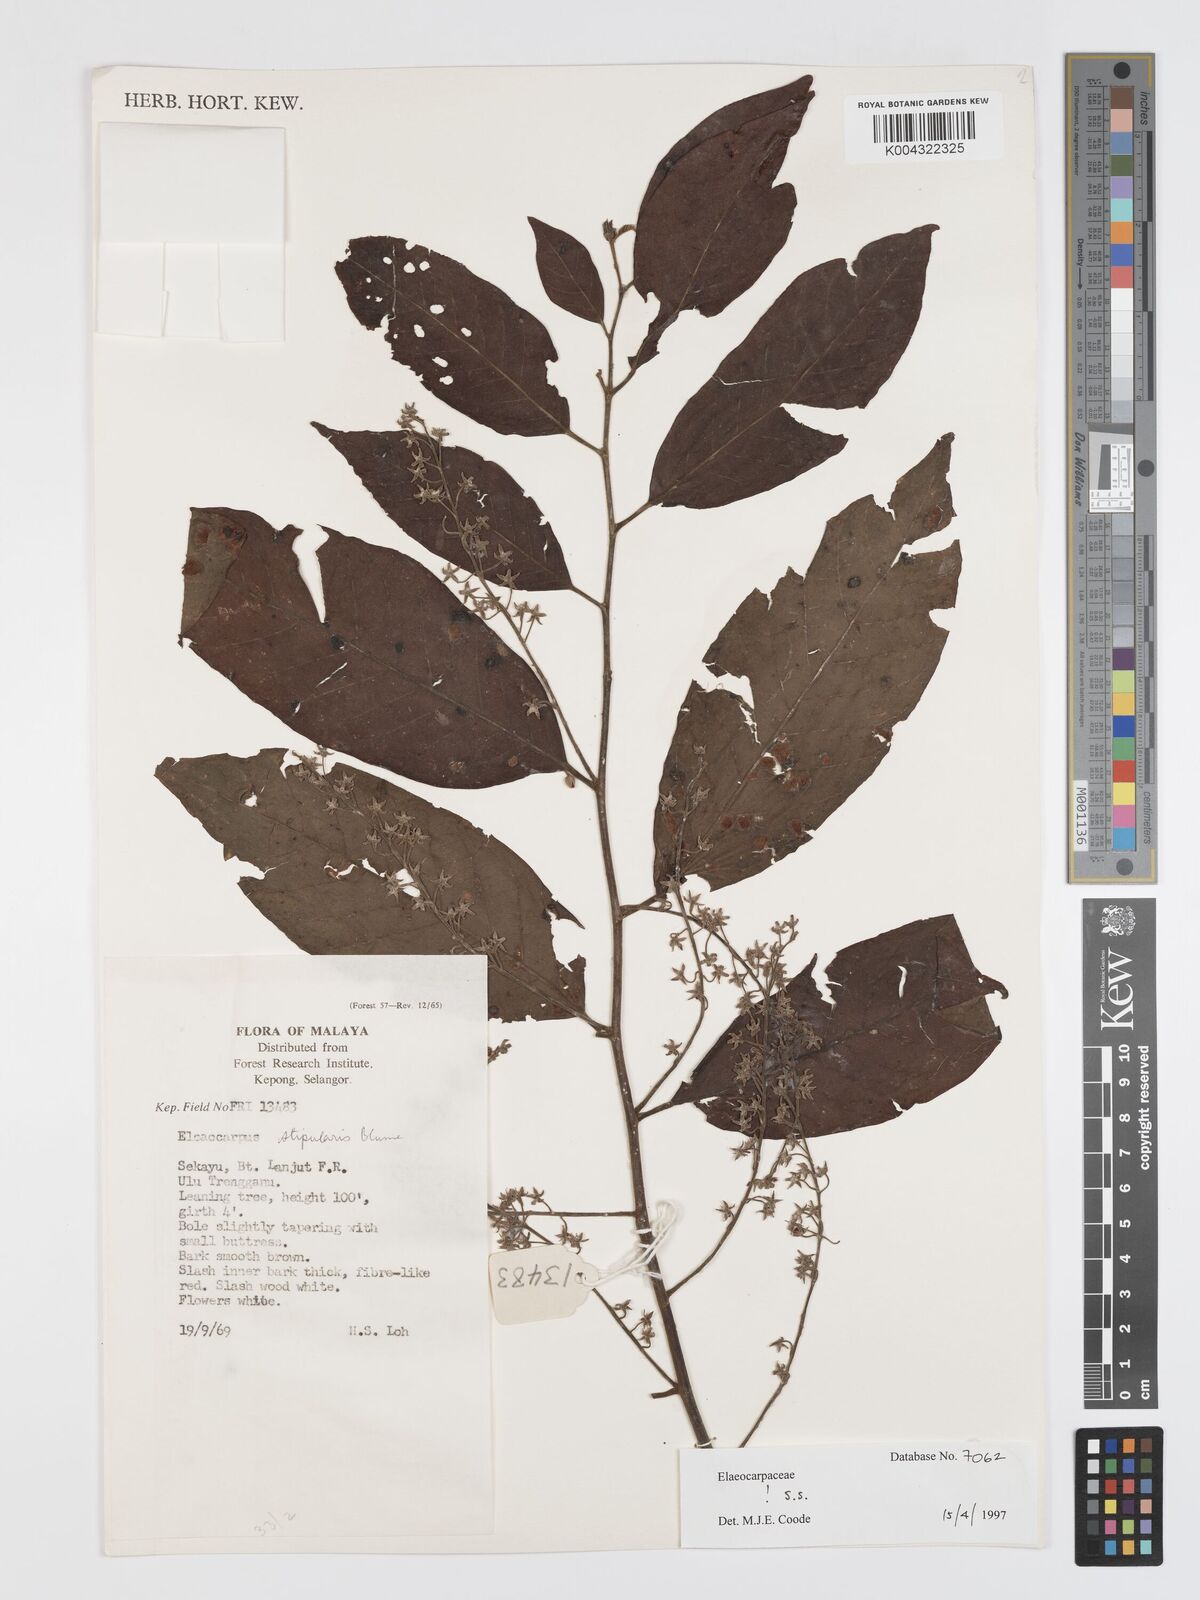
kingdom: Plantae
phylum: Tracheophyta
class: Magnoliopsida
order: Oxalidales
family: Elaeocarpaceae
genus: Elaeocarpus
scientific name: Elaeocarpus stipularis
